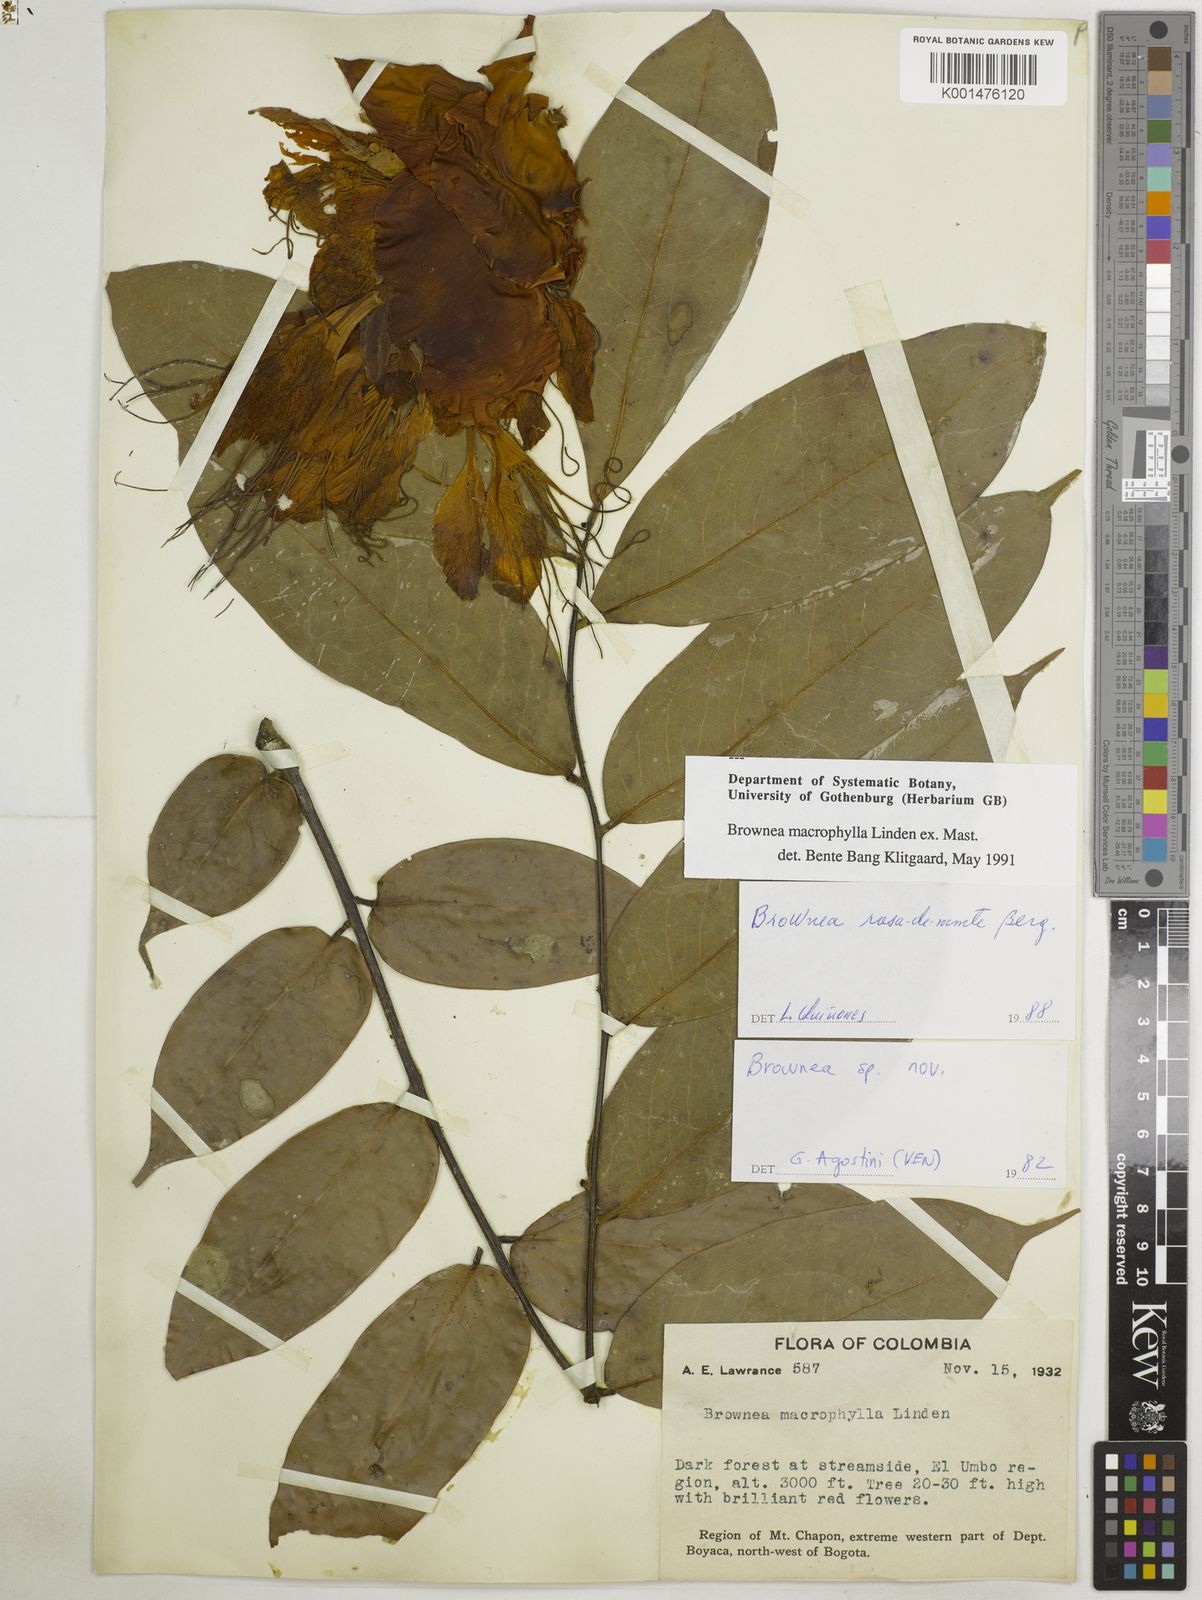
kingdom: Plantae
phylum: Tracheophyta
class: Magnoliopsida
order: Fabales
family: Fabaceae
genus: Brownea
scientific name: Brownea macrophylla
